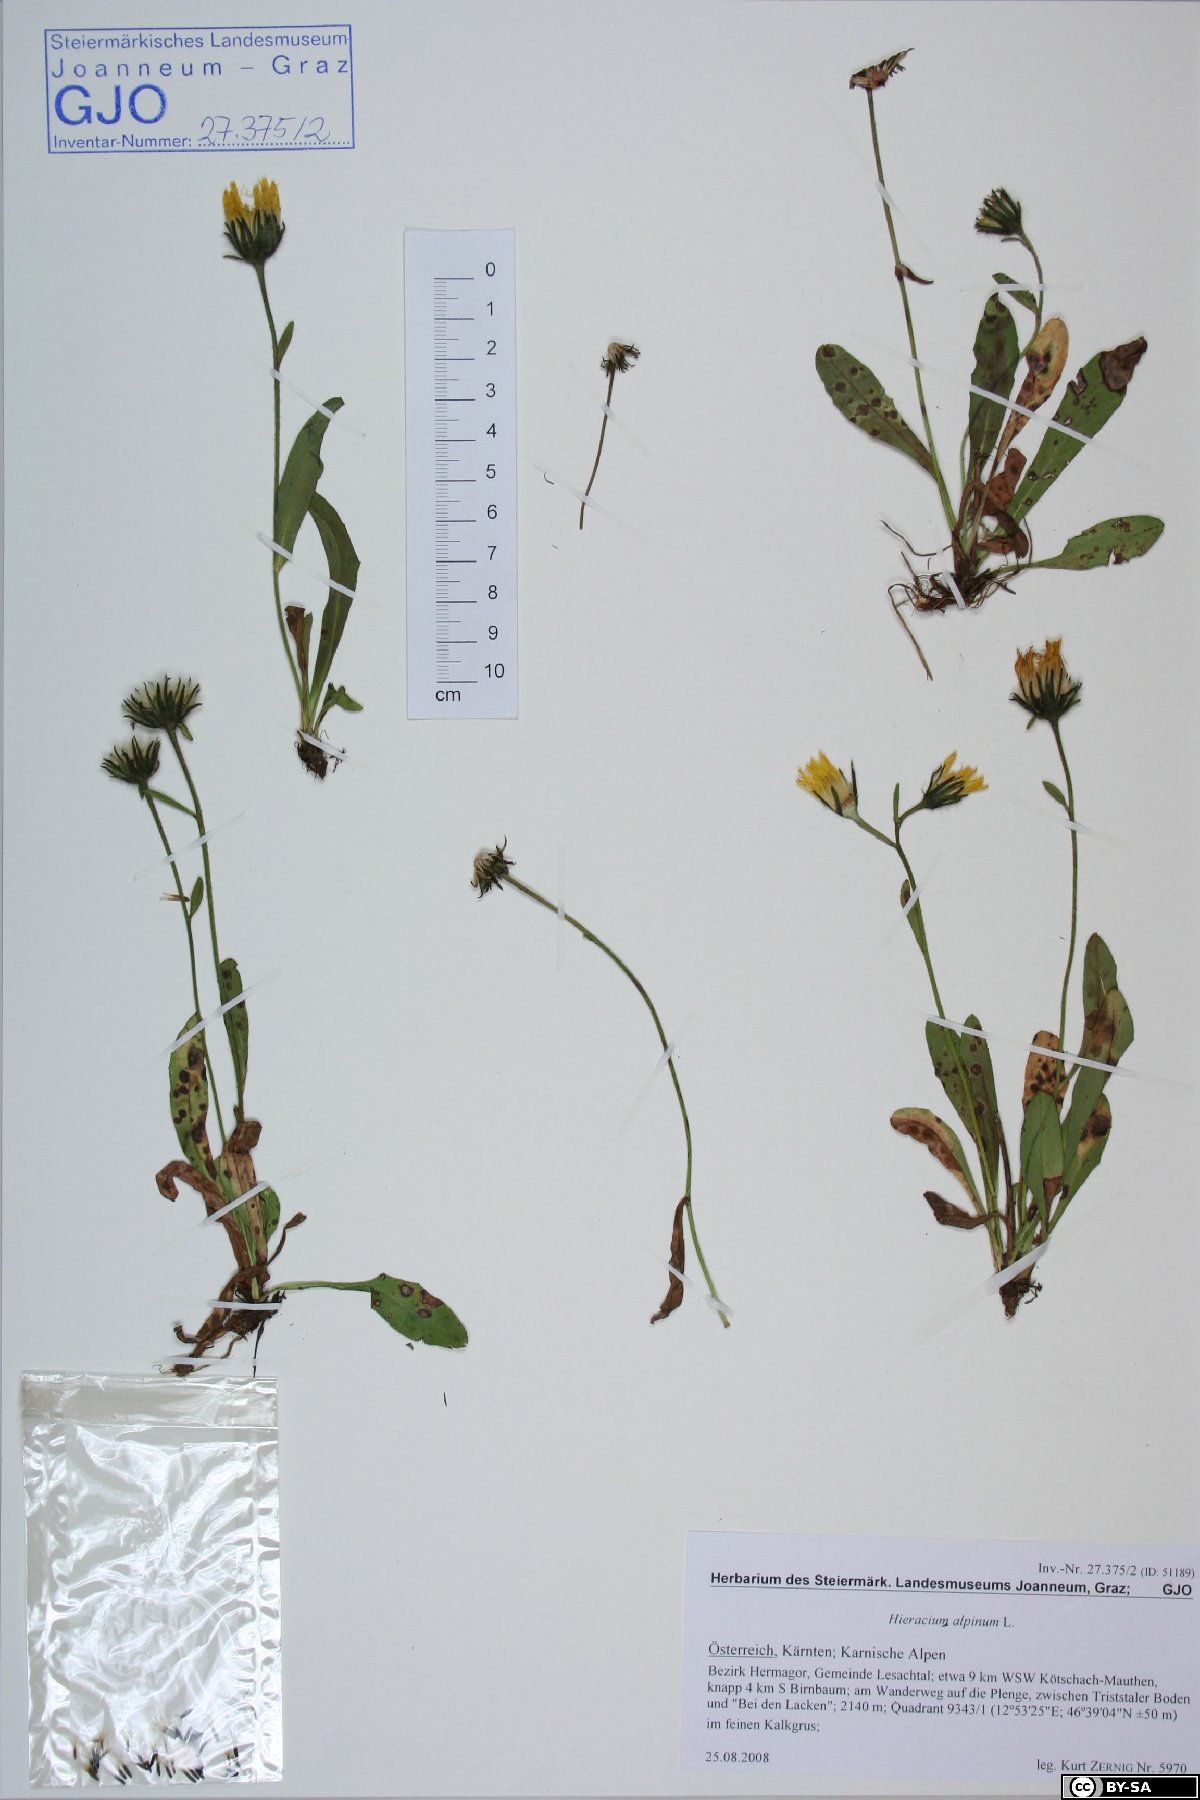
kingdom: Plantae
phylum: Tracheophyta
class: Magnoliopsida
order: Asterales
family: Asteraceae
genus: Hieracium
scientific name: Hieracium alpinum
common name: Alpine hawkweed
